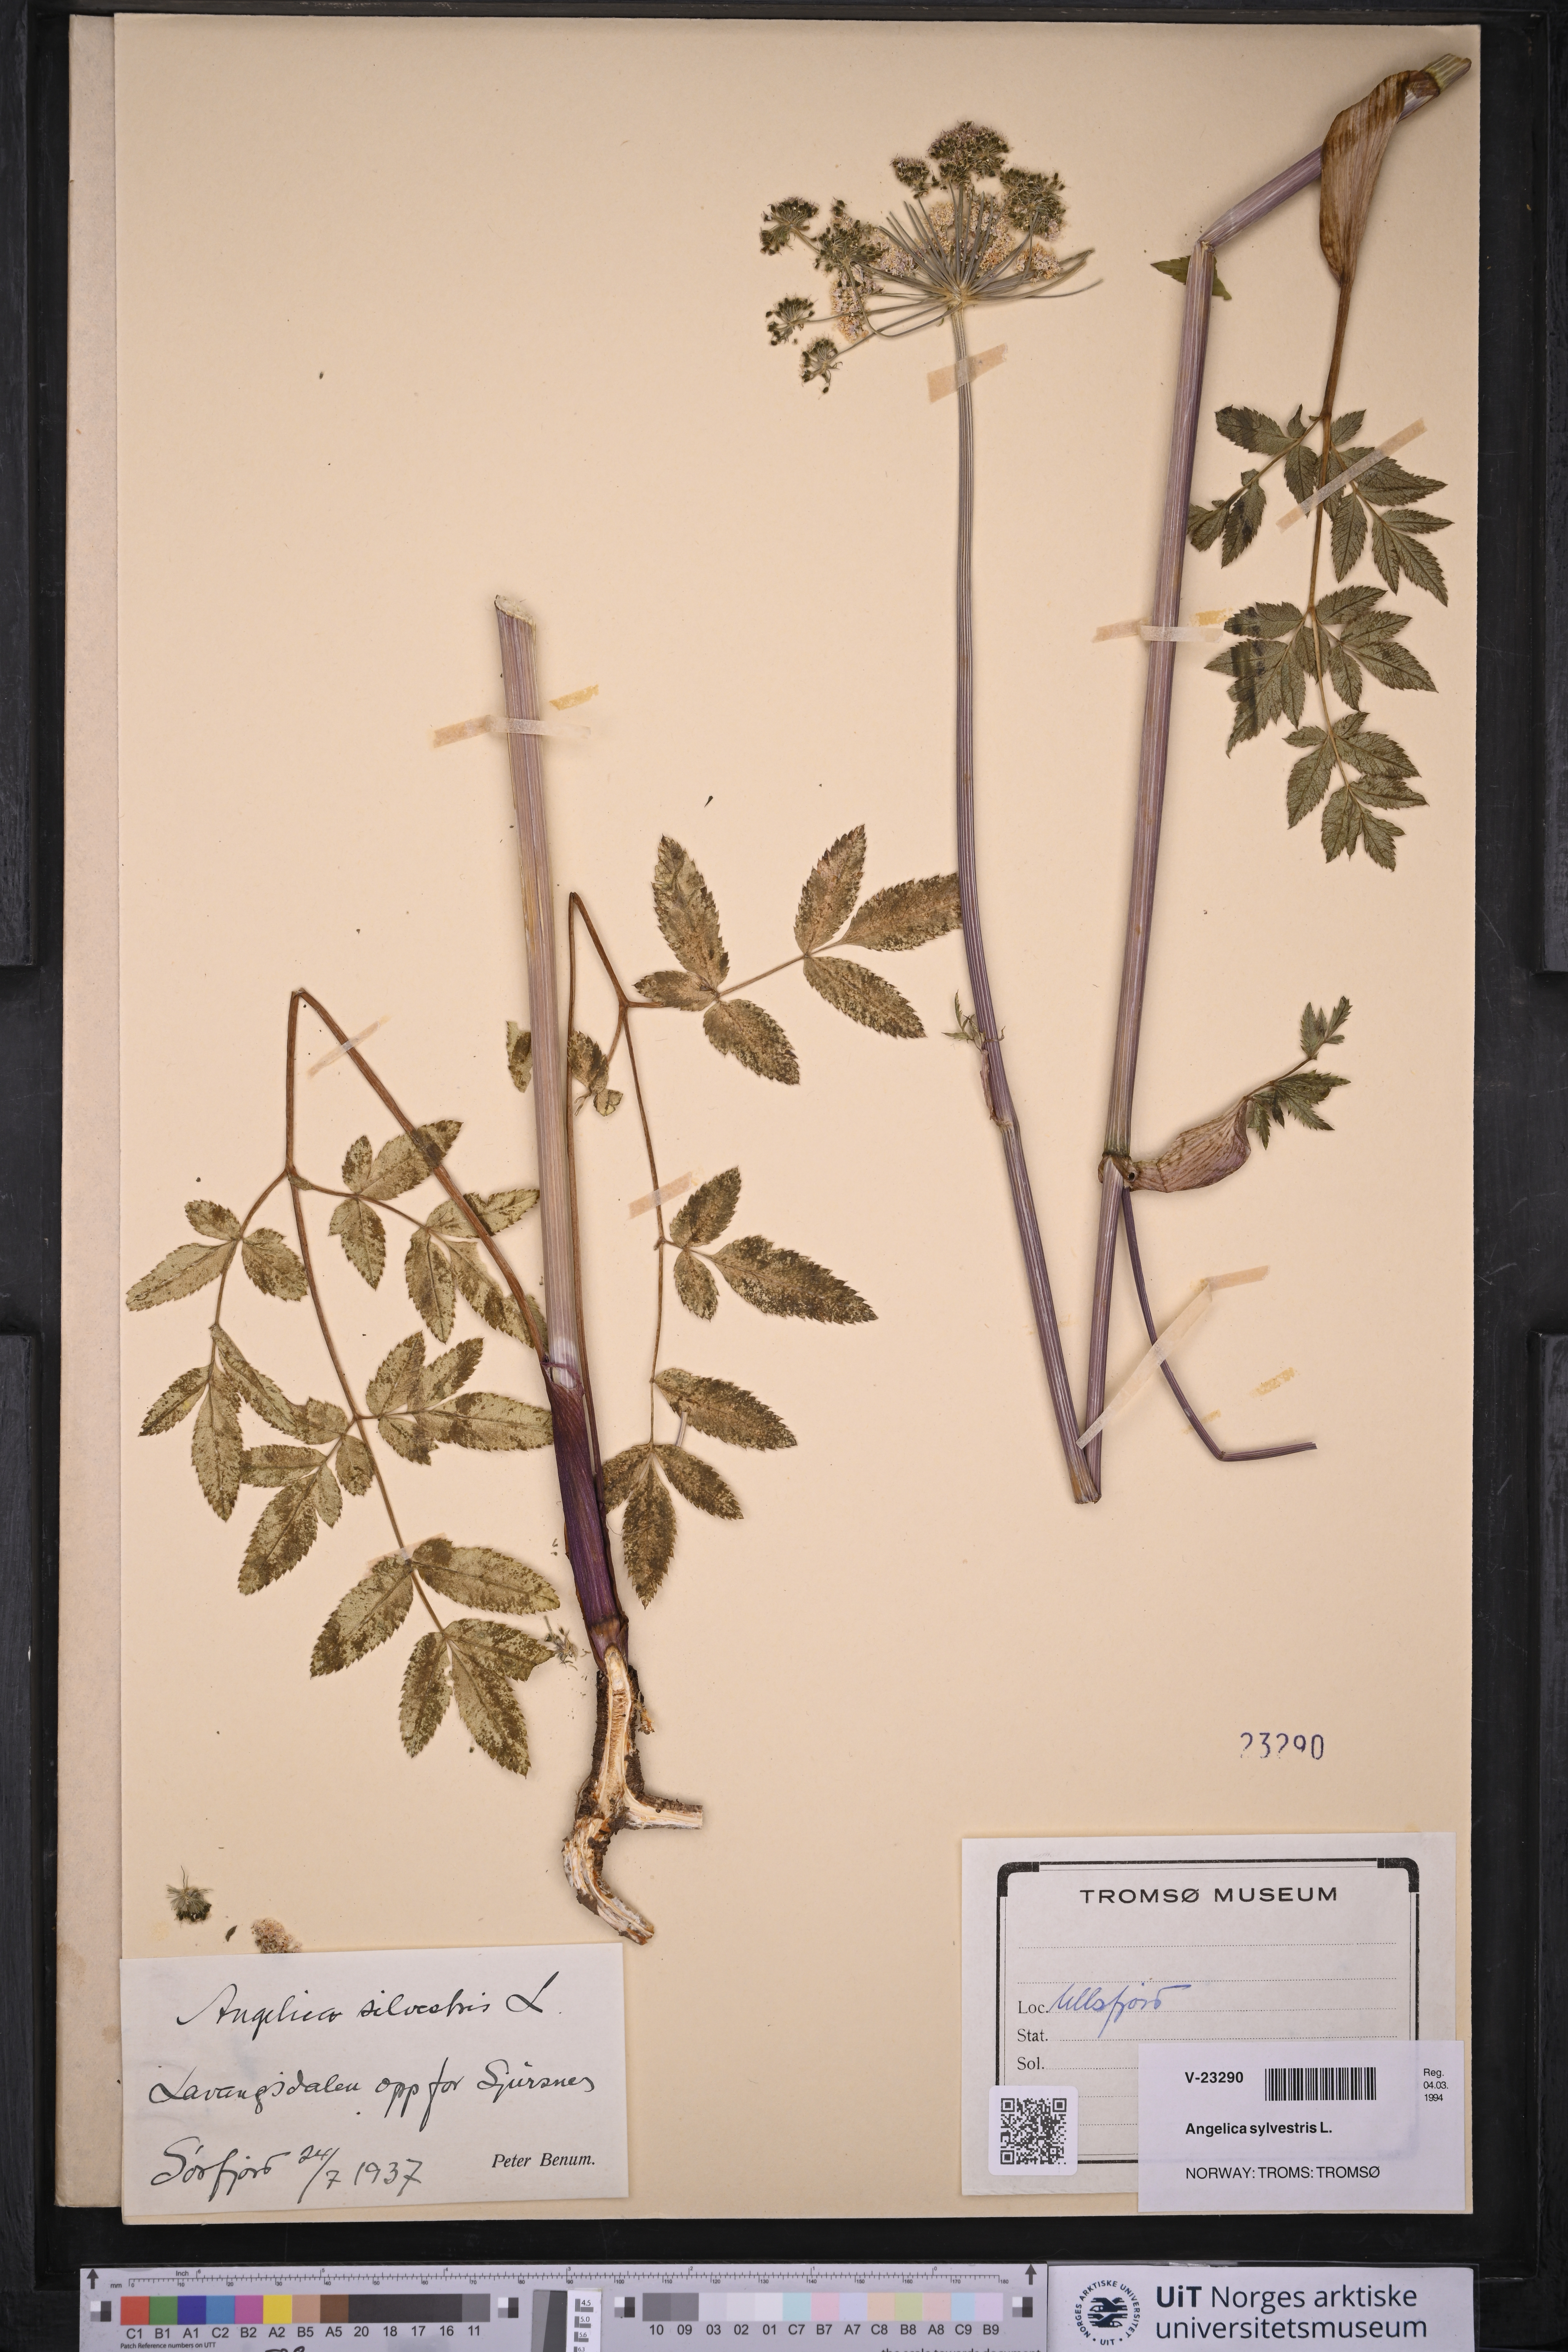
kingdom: Plantae
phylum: Tracheophyta
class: Magnoliopsida
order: Apiales
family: Apiaceae
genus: Angelica
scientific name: Angelica sylvestris
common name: Wild angelica
